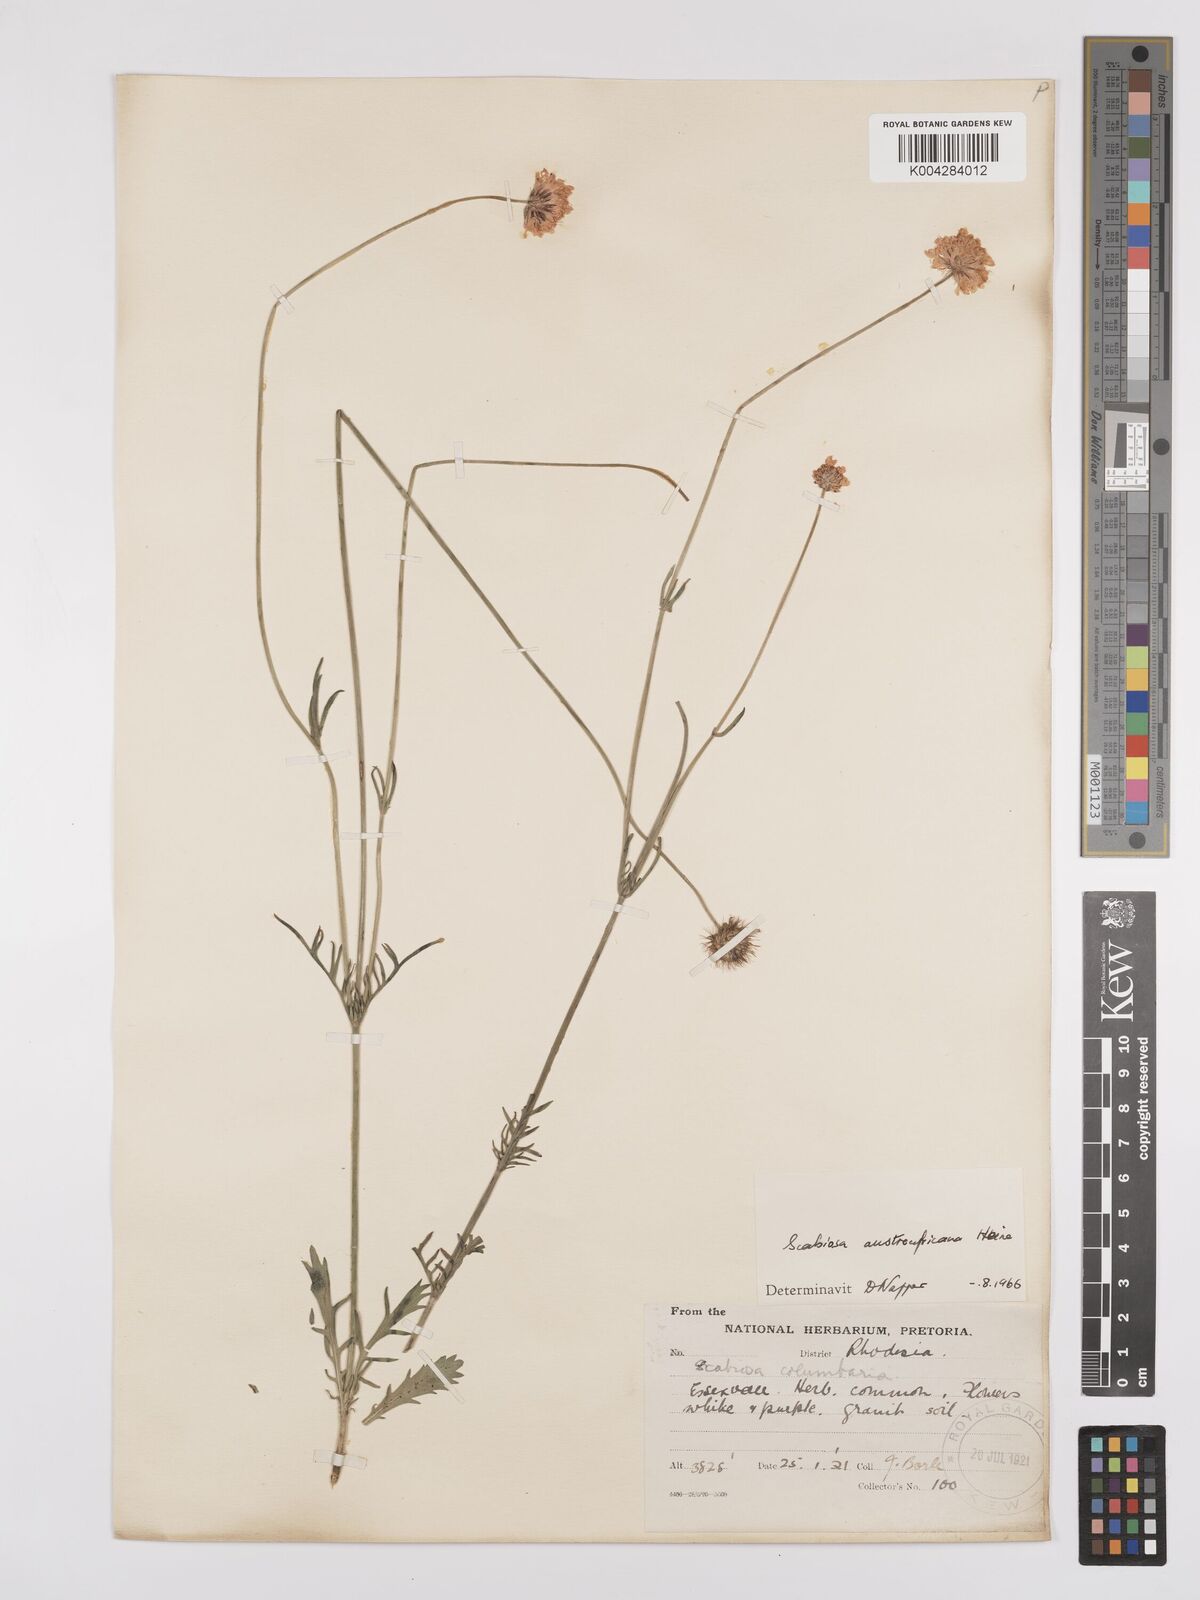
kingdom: Plantae
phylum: Tracheophyta
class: Magnoliopsida
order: Dipsacales
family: Caprifoliaceae
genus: Scabiosa
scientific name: Scabiosa austroafricana
